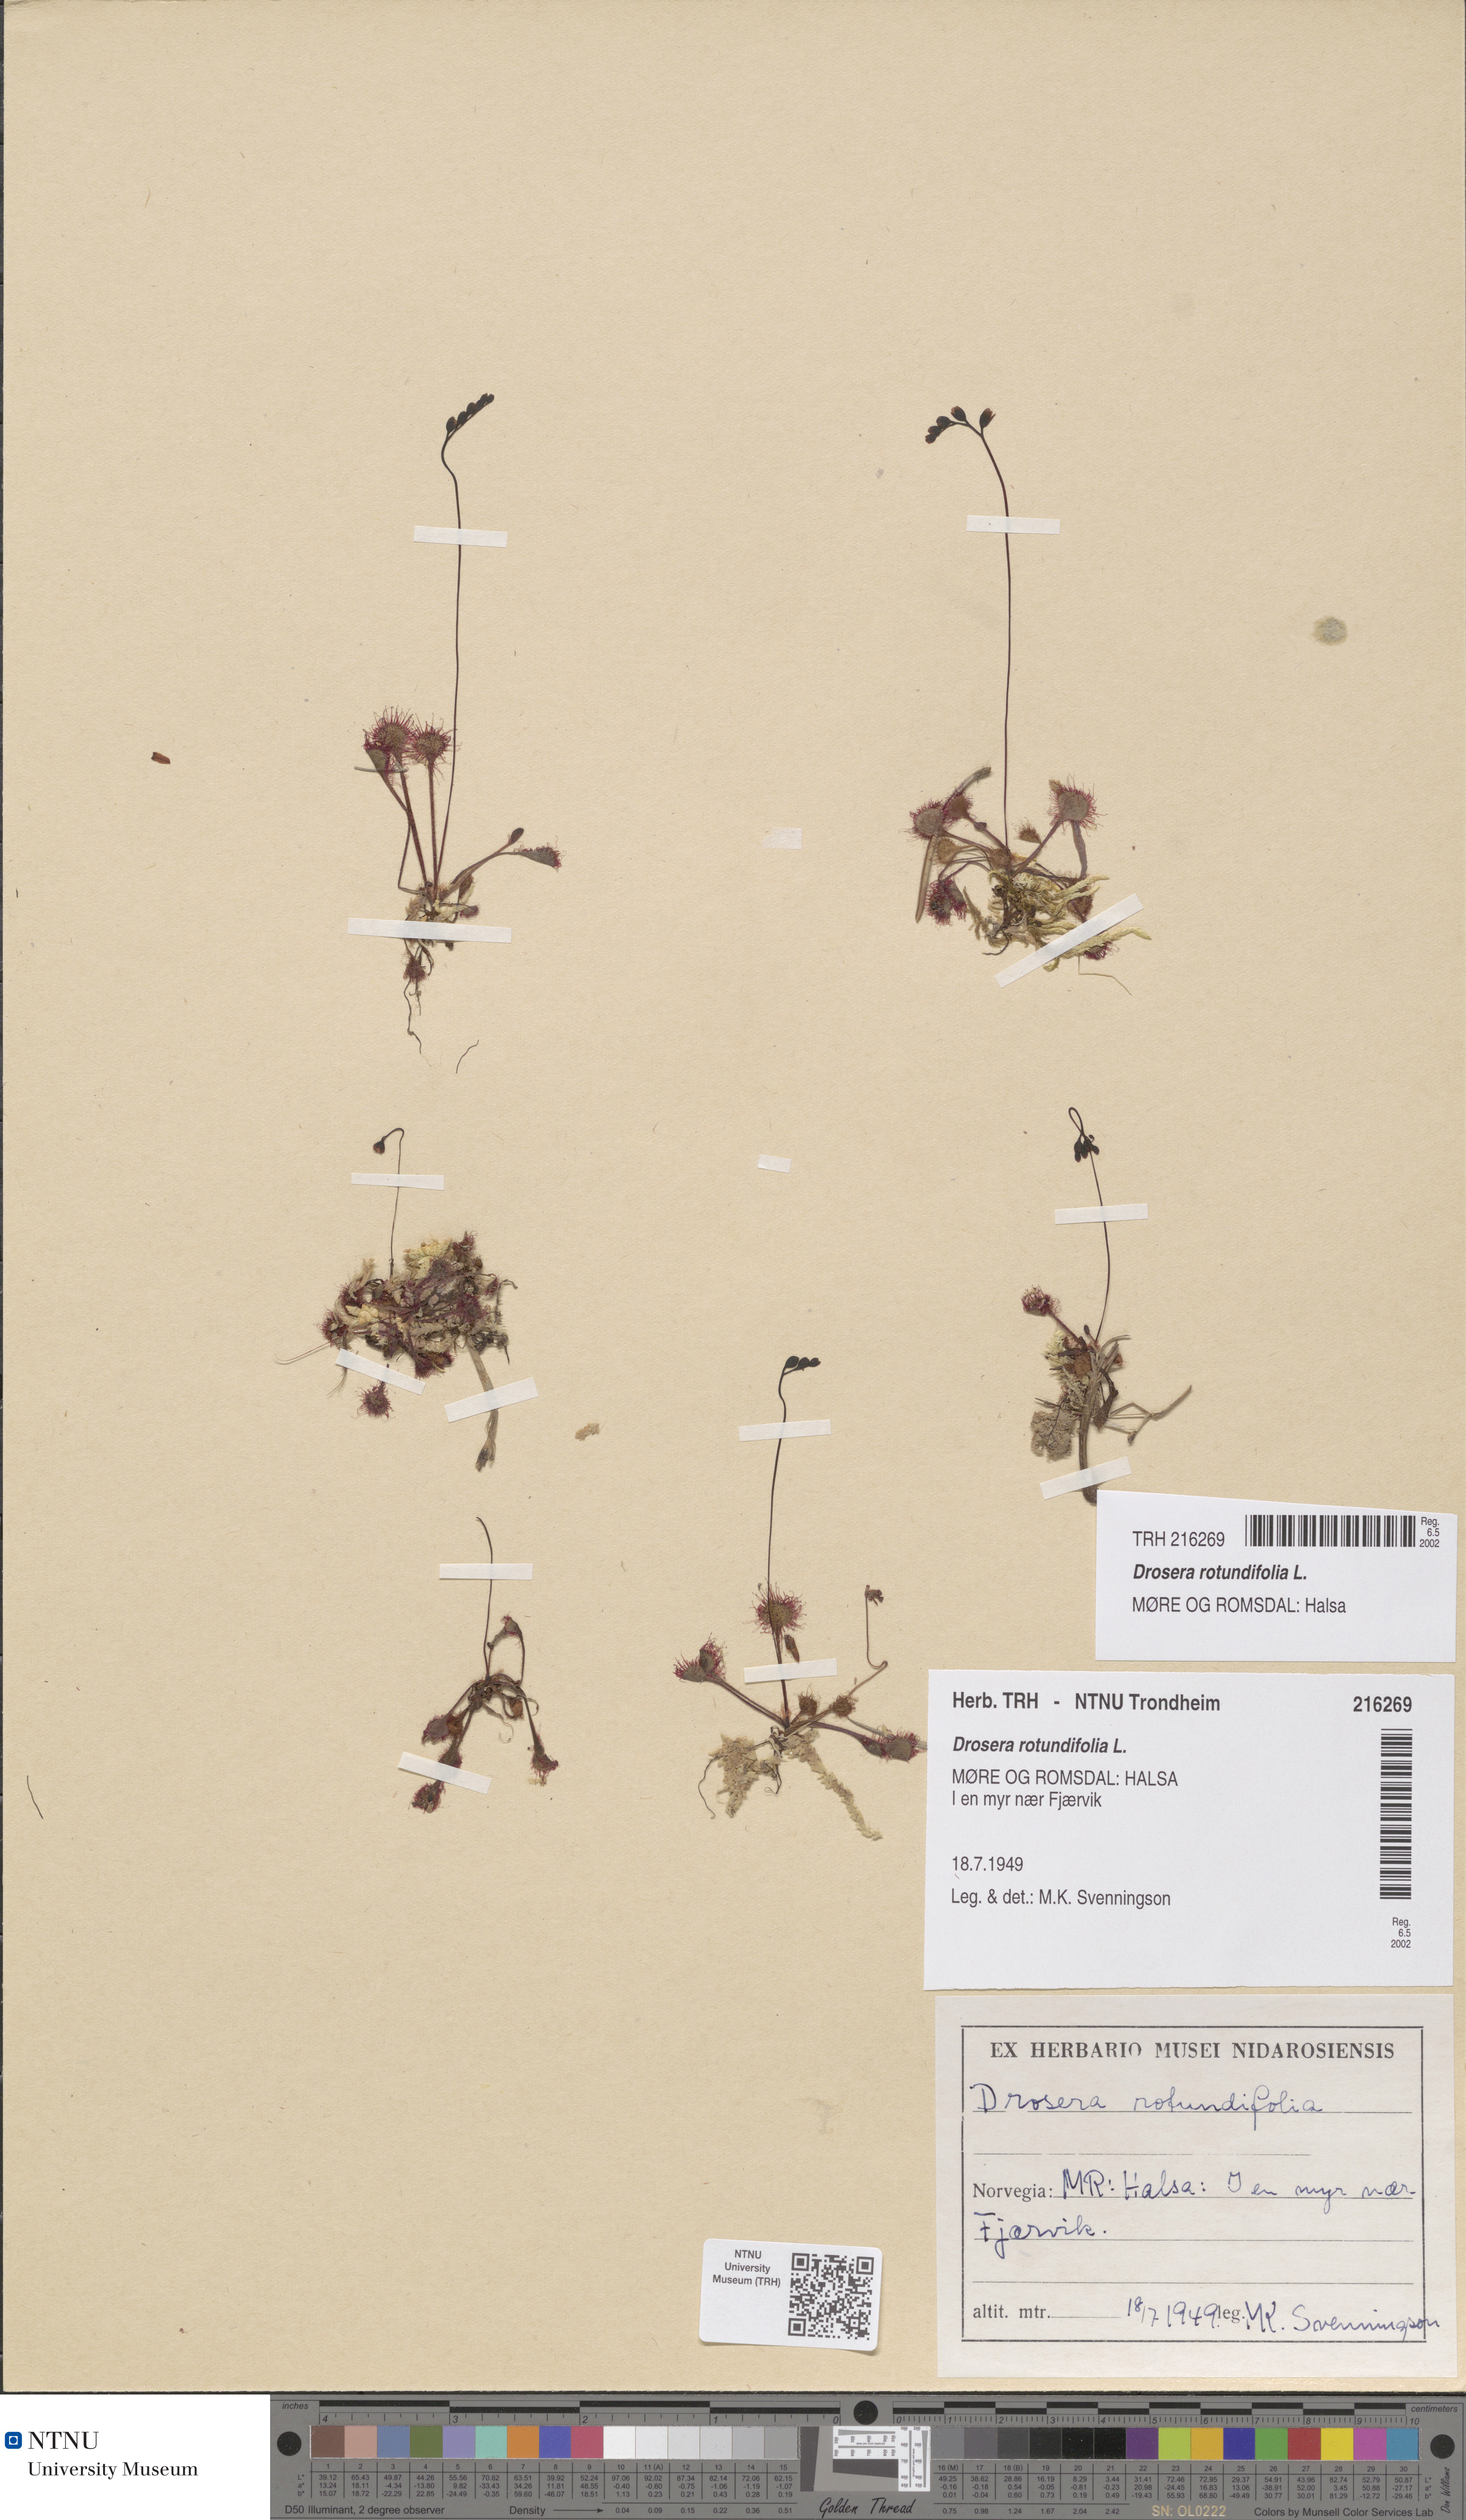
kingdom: Plantae
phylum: Tracheophyta
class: Magnoliopsida
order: Caryophyllales
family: Droseraceae
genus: Drosera
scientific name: Drosera rotundifolia
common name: Round-leaved sundew
